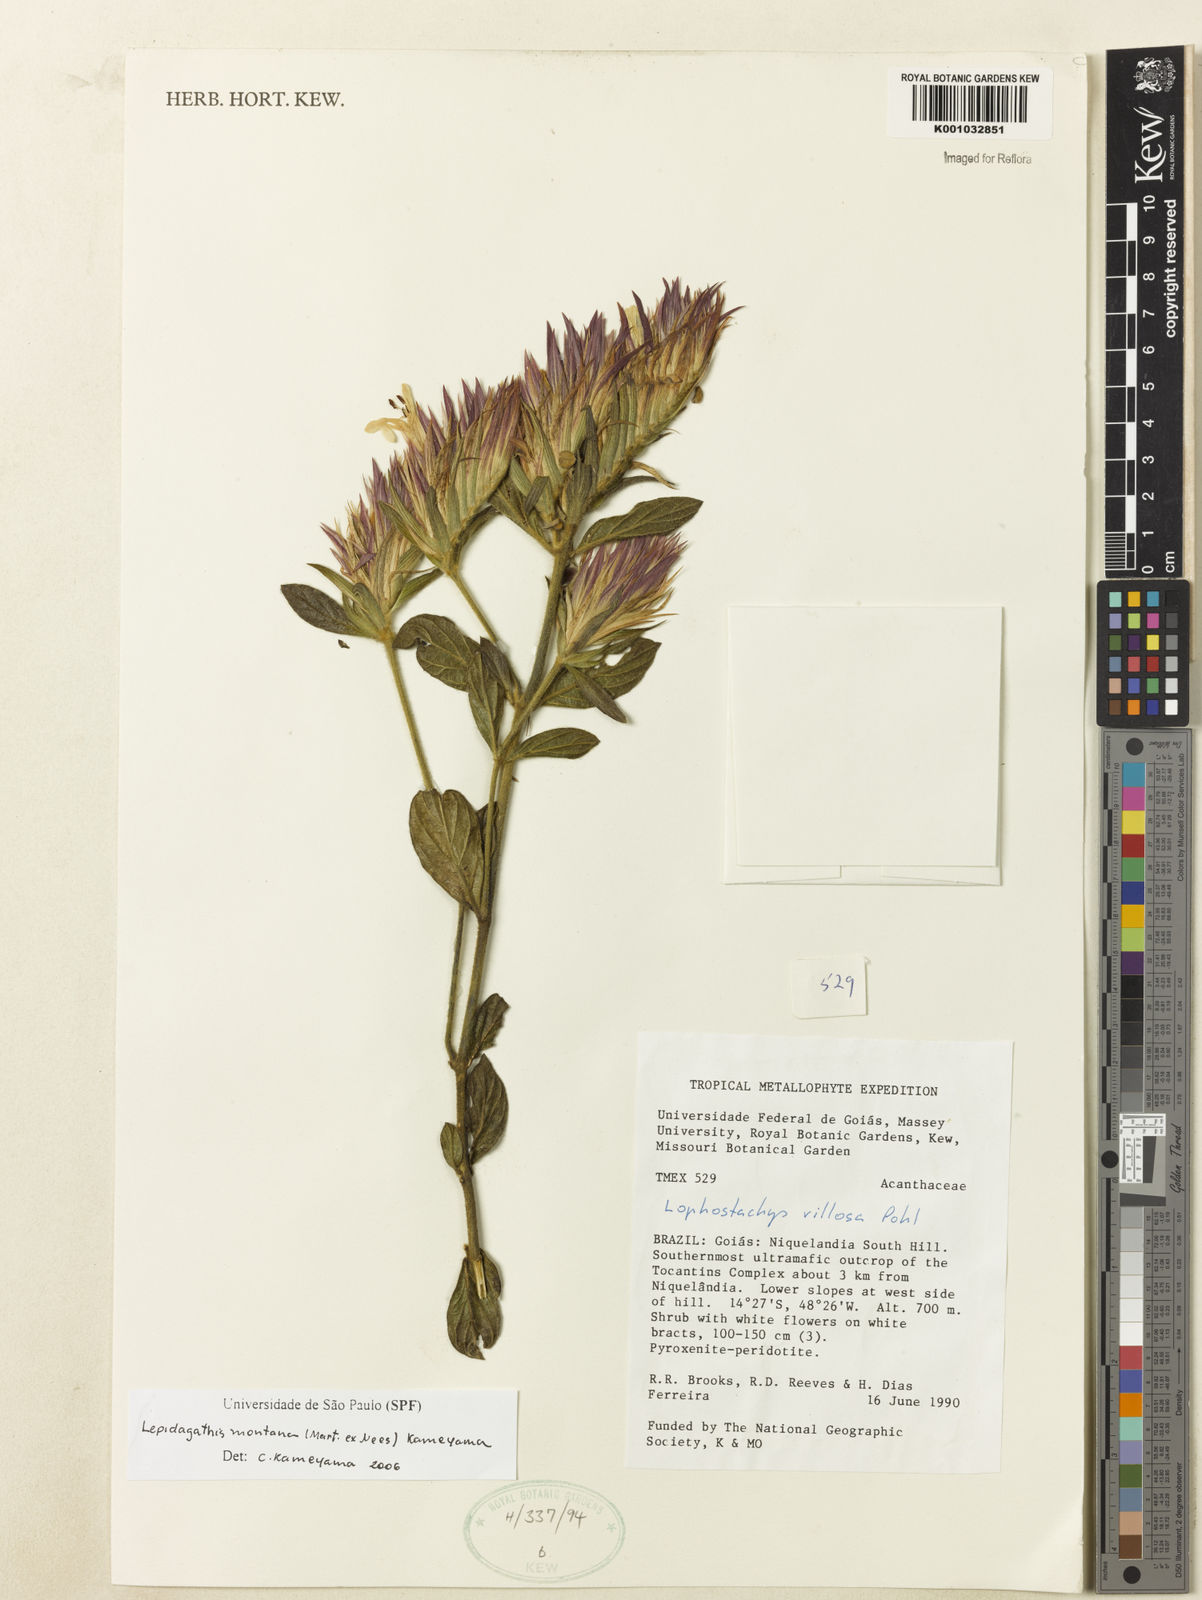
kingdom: Plantae
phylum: Tracheophyta
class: Magnoliopsida
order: Lamiales
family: Acanthaceae
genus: Lepidagathis
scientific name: Lepidagathis montana
